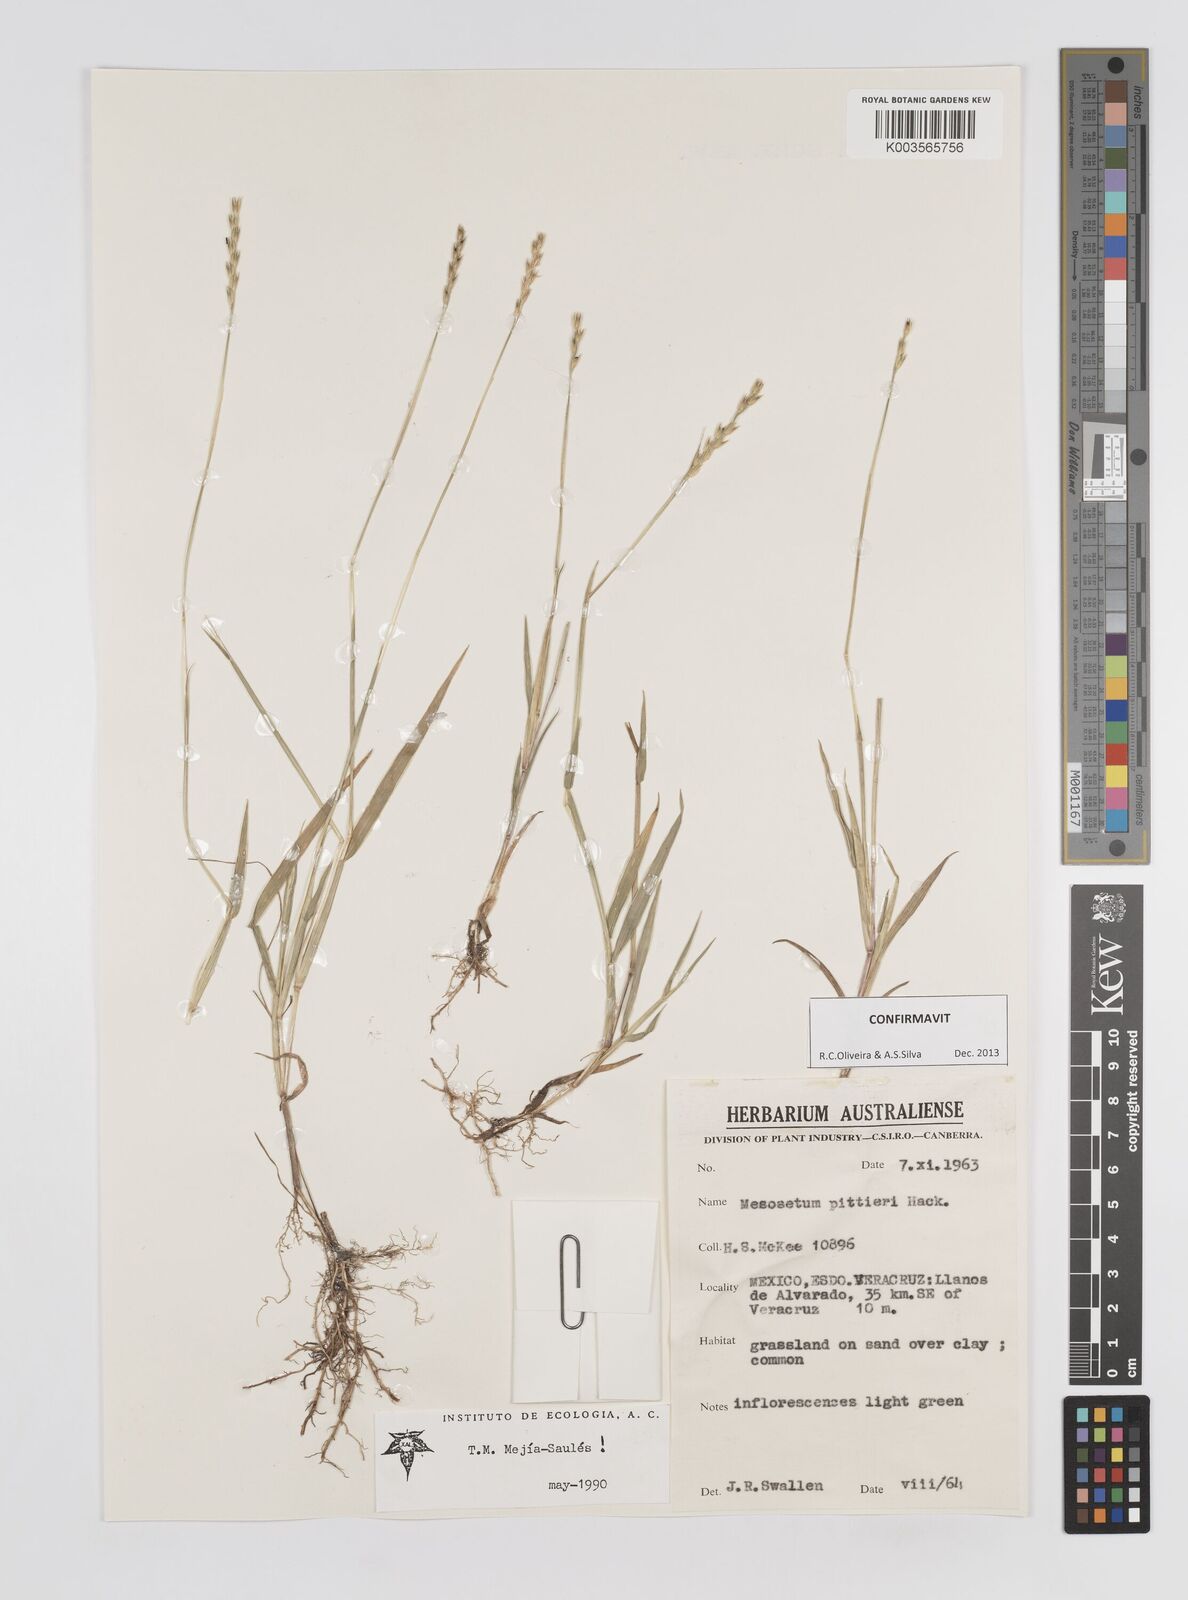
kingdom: Plantae
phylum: Tracheophyta
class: Liliopsida
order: Poales
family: Poaceae
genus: Mesosetum
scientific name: Mesosetum pittieri
